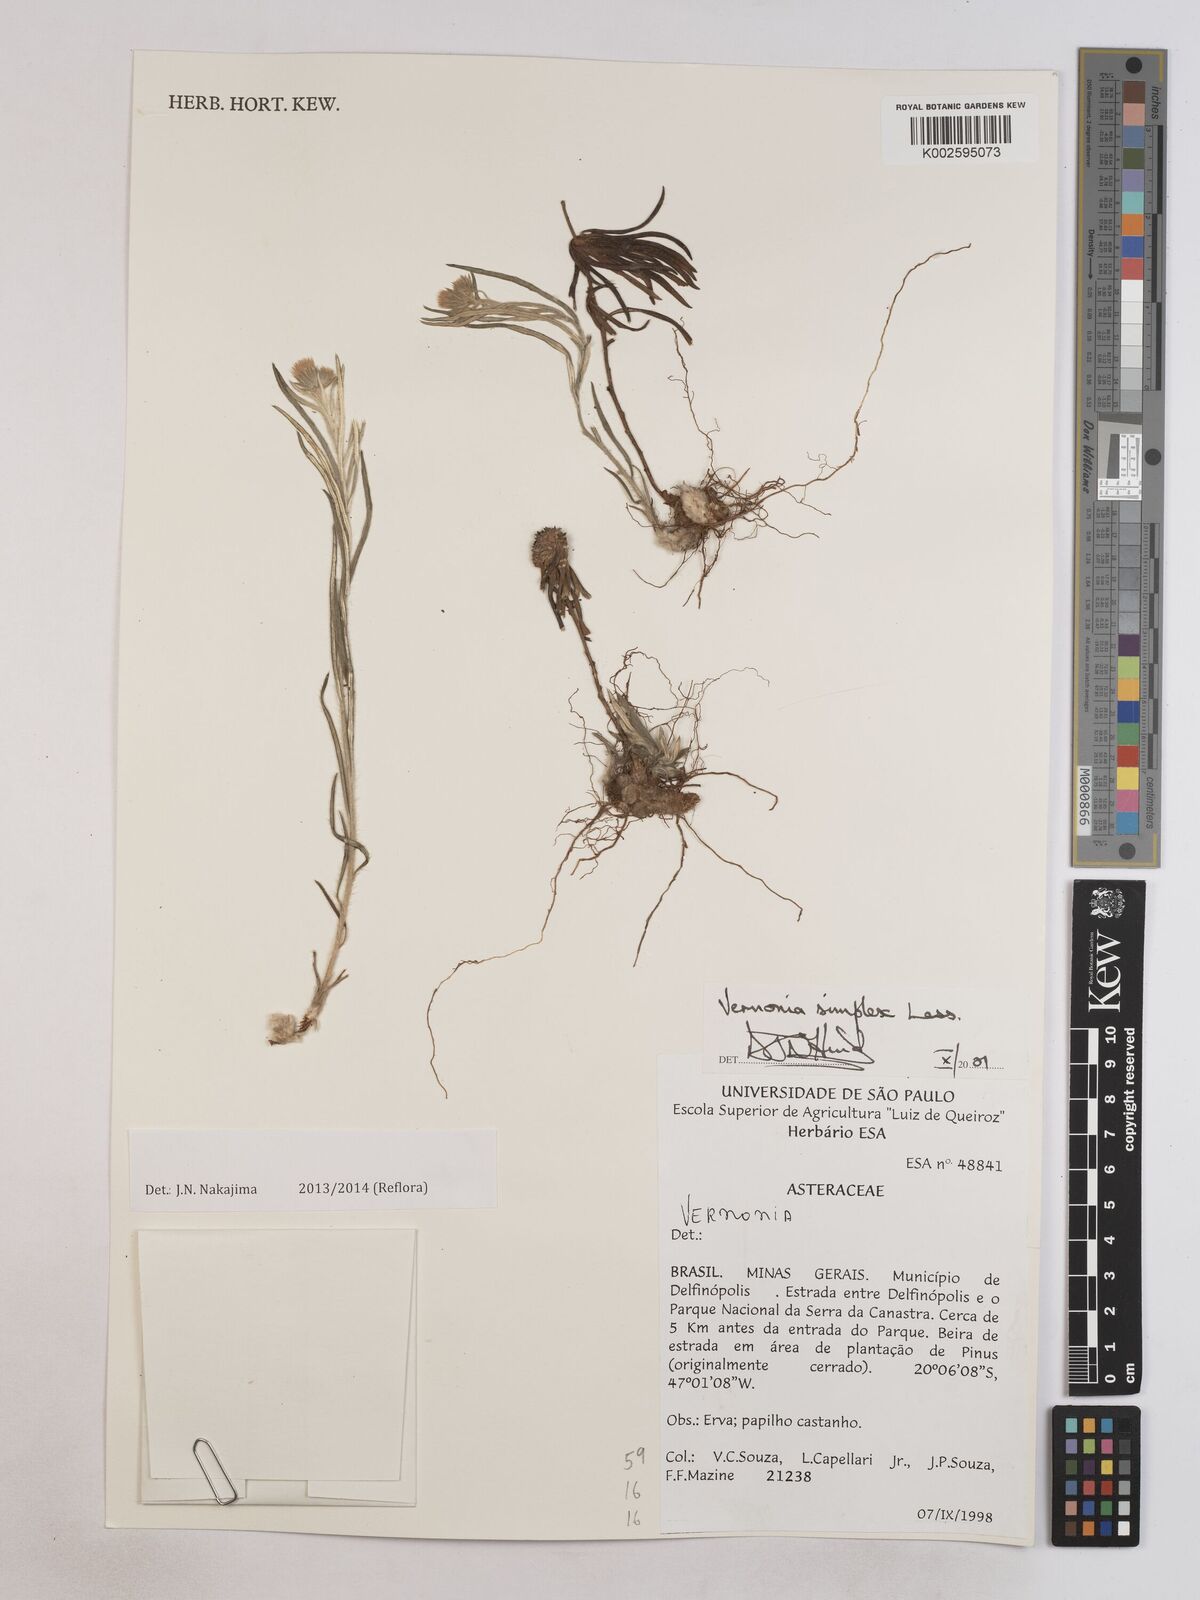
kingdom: Plantae
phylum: Tracheophyta
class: Magnoliopsida
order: Asterales
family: Asteraceae
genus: Chrysolaena
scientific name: Chrysolaena simplex
